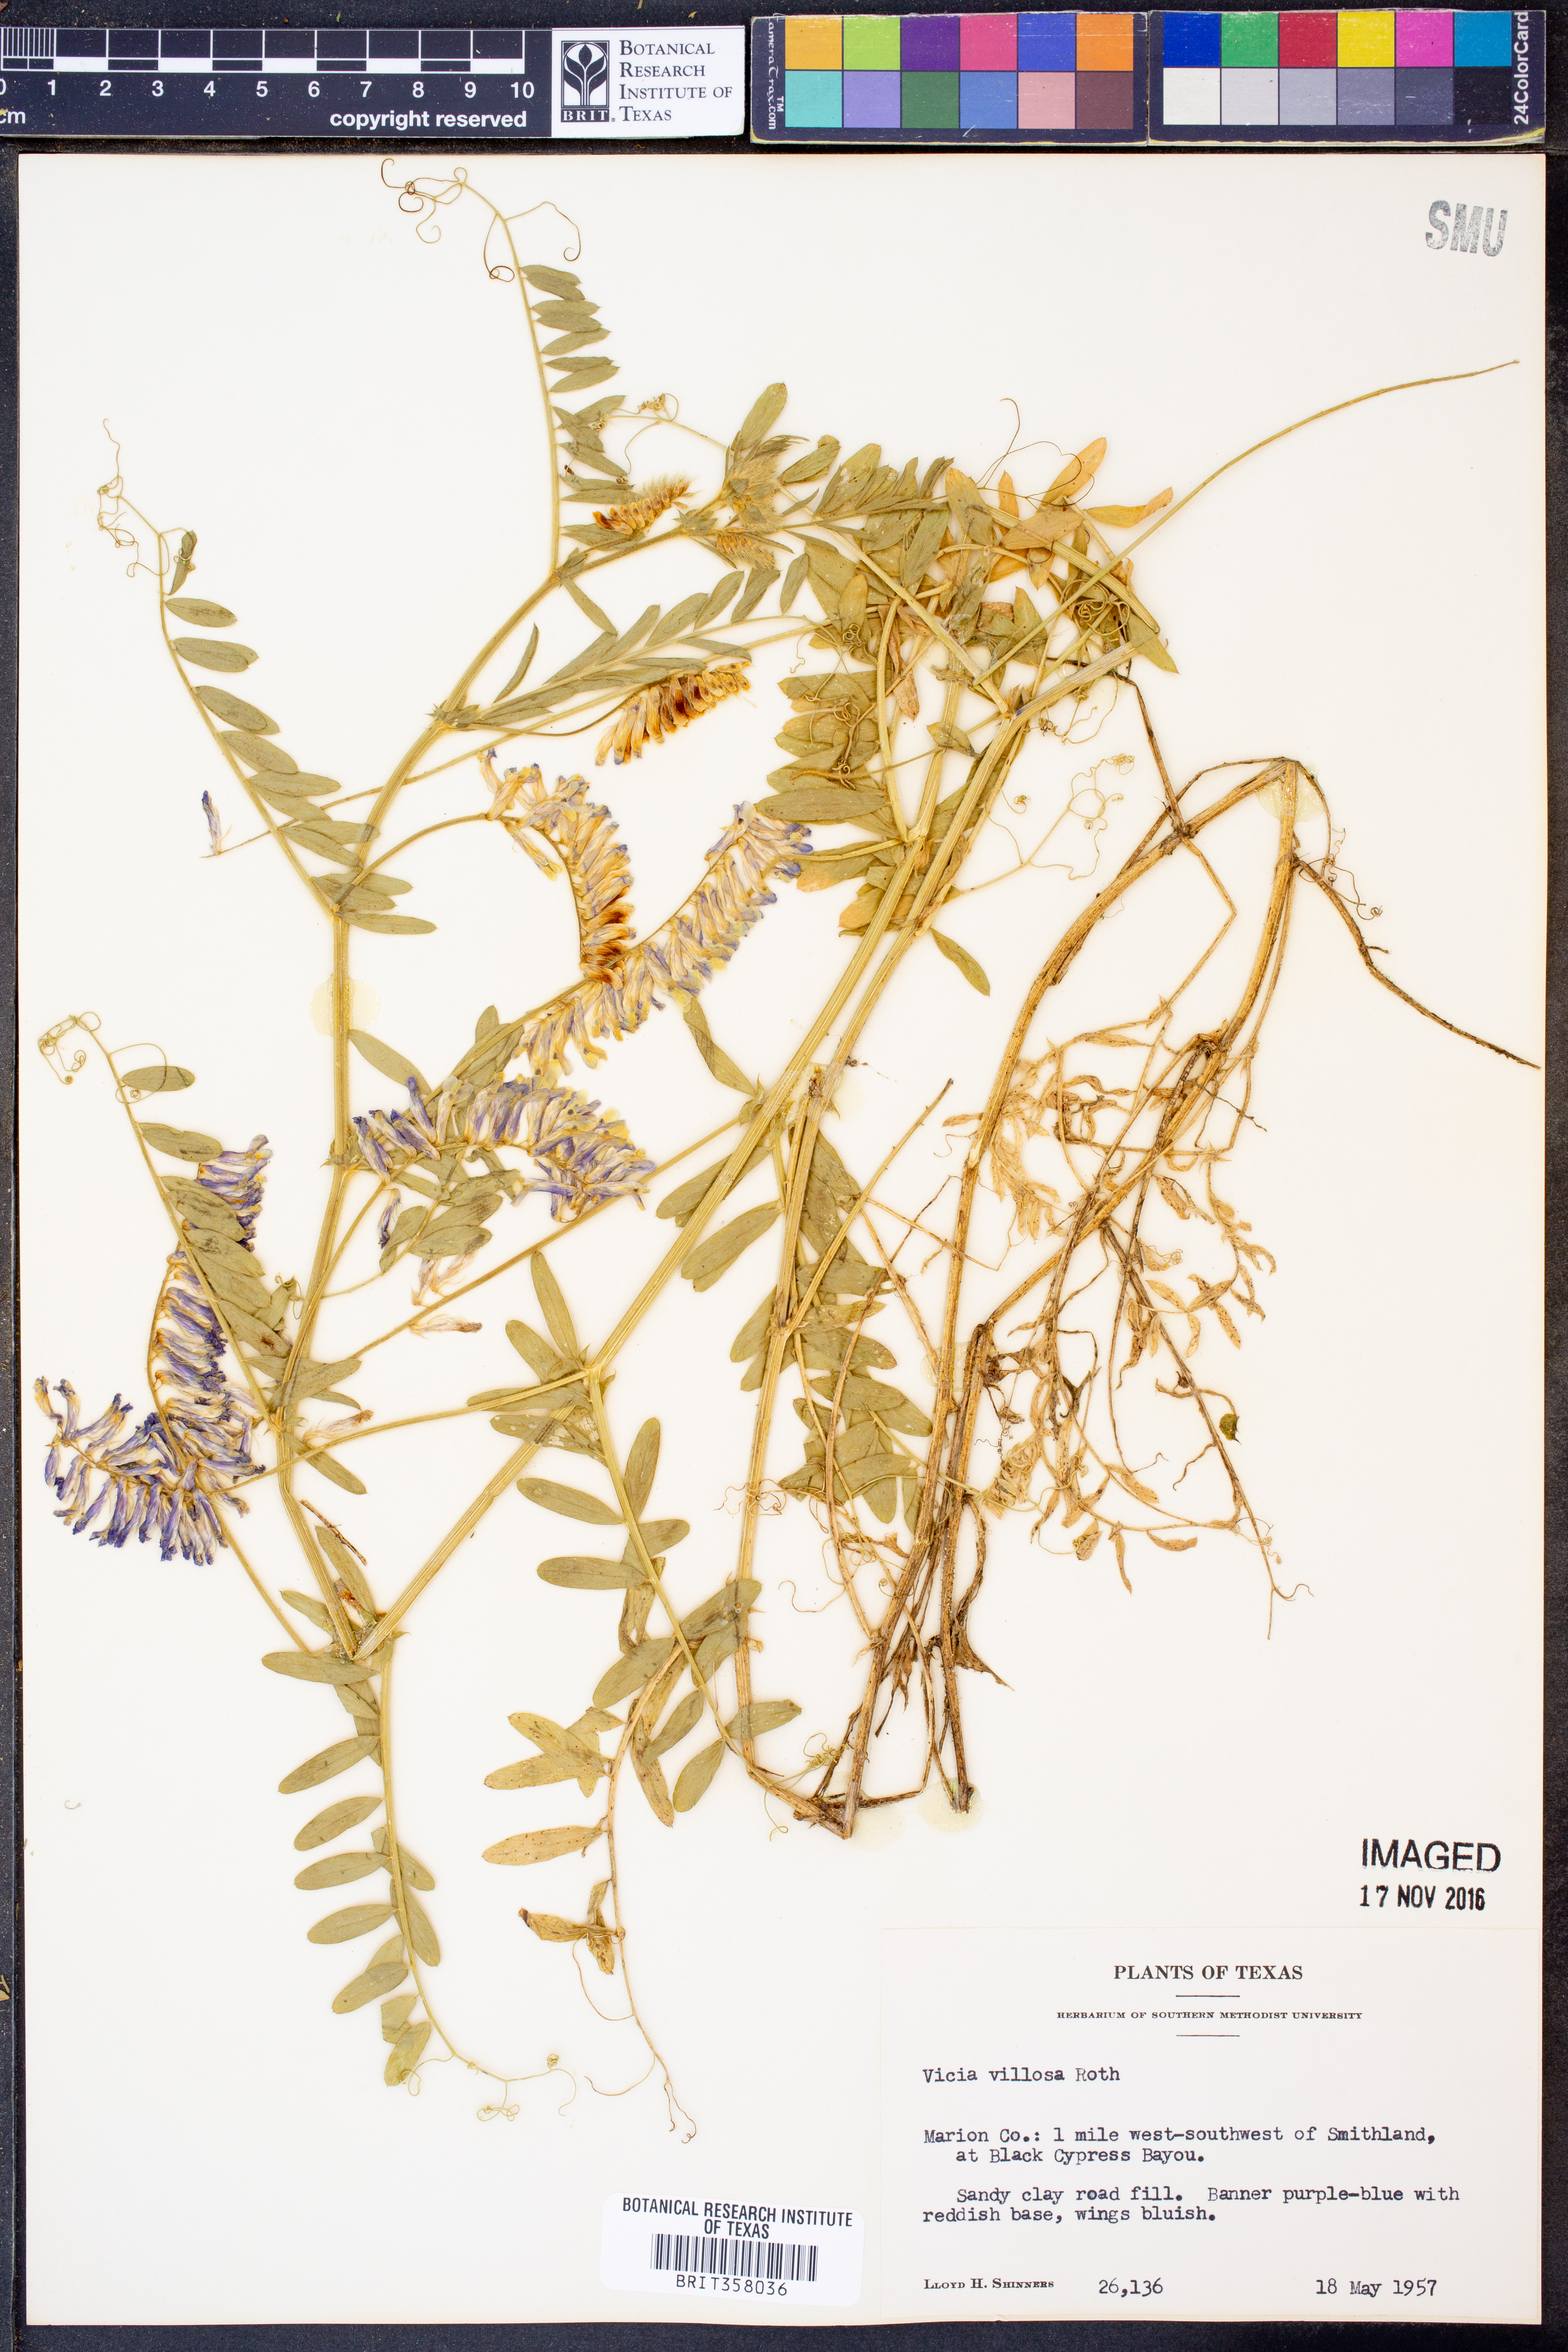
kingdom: Plantae
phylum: Tracheophyta
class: Magnoliopsida
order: Fabales
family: Fabaceae
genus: Vicia
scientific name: Vicia villosa
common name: Fodder vetch
